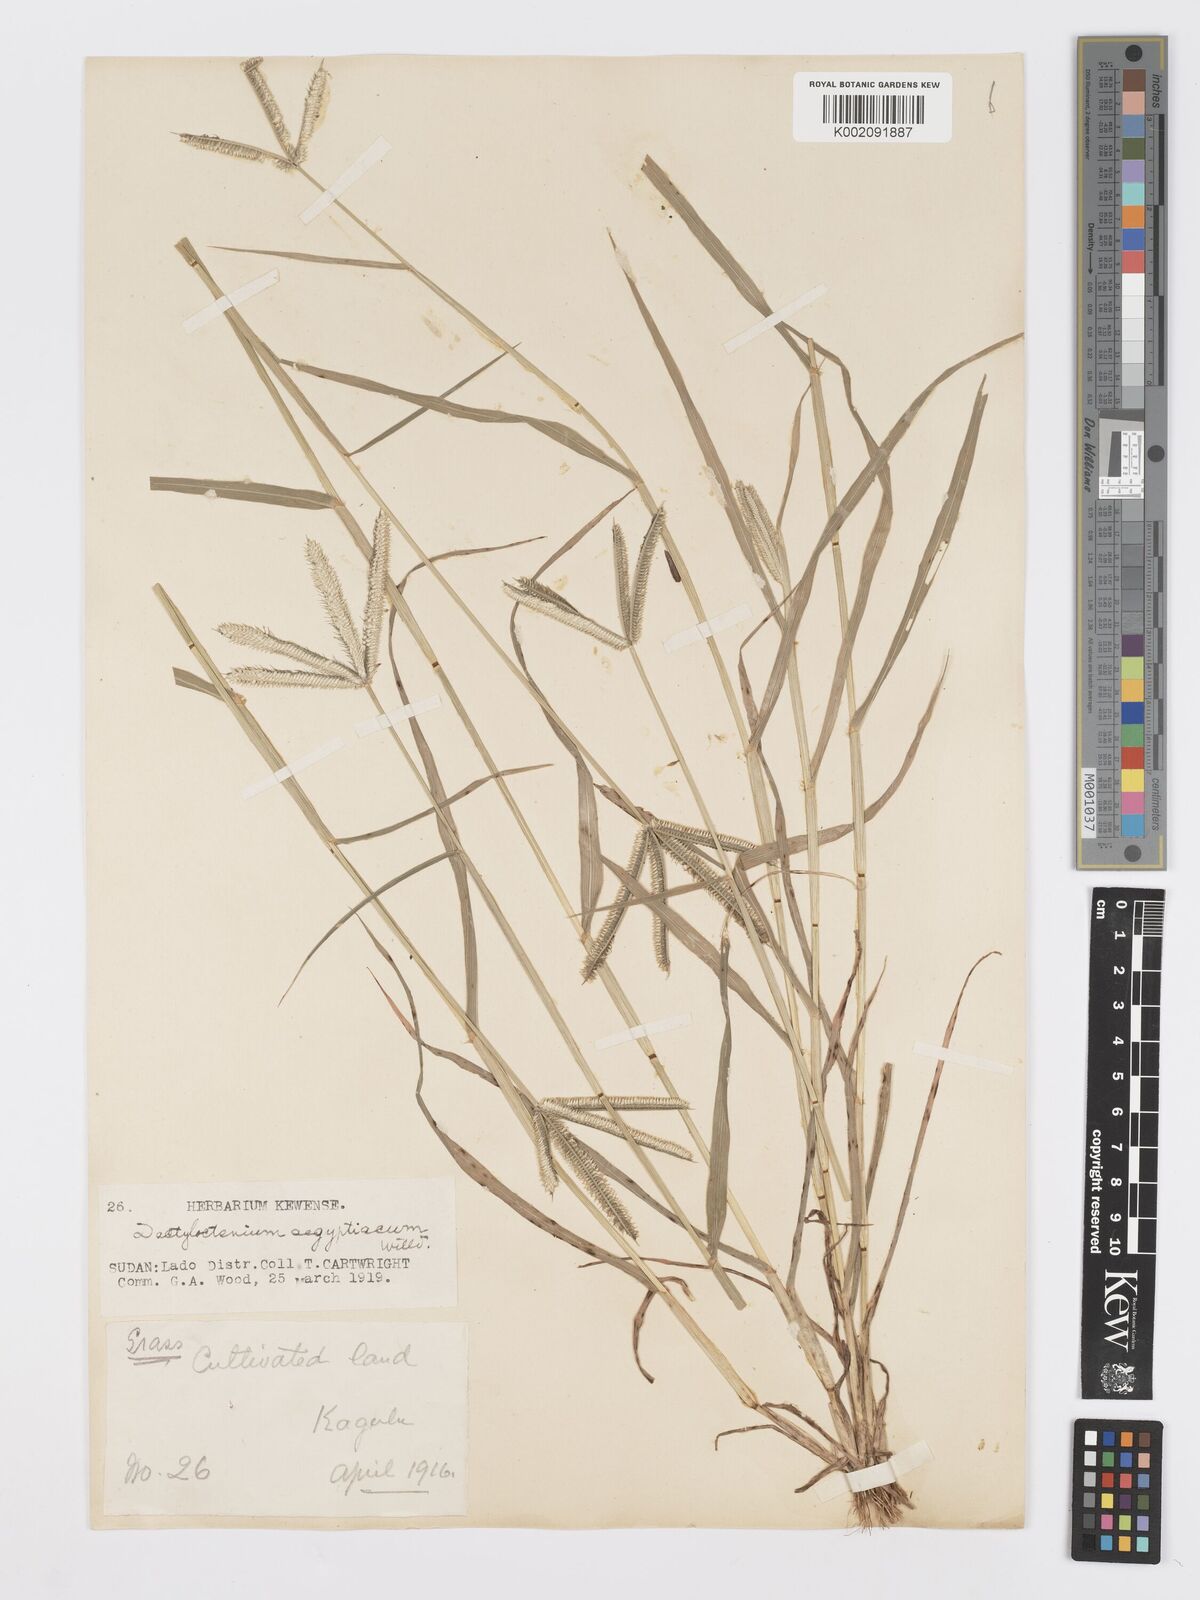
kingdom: Plantae
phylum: Tracheophyta
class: Liliopsida
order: Poales
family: Poaceae
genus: Dactyloctenium
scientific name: Dactyloctenium aegyptium
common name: Egyptian grass
